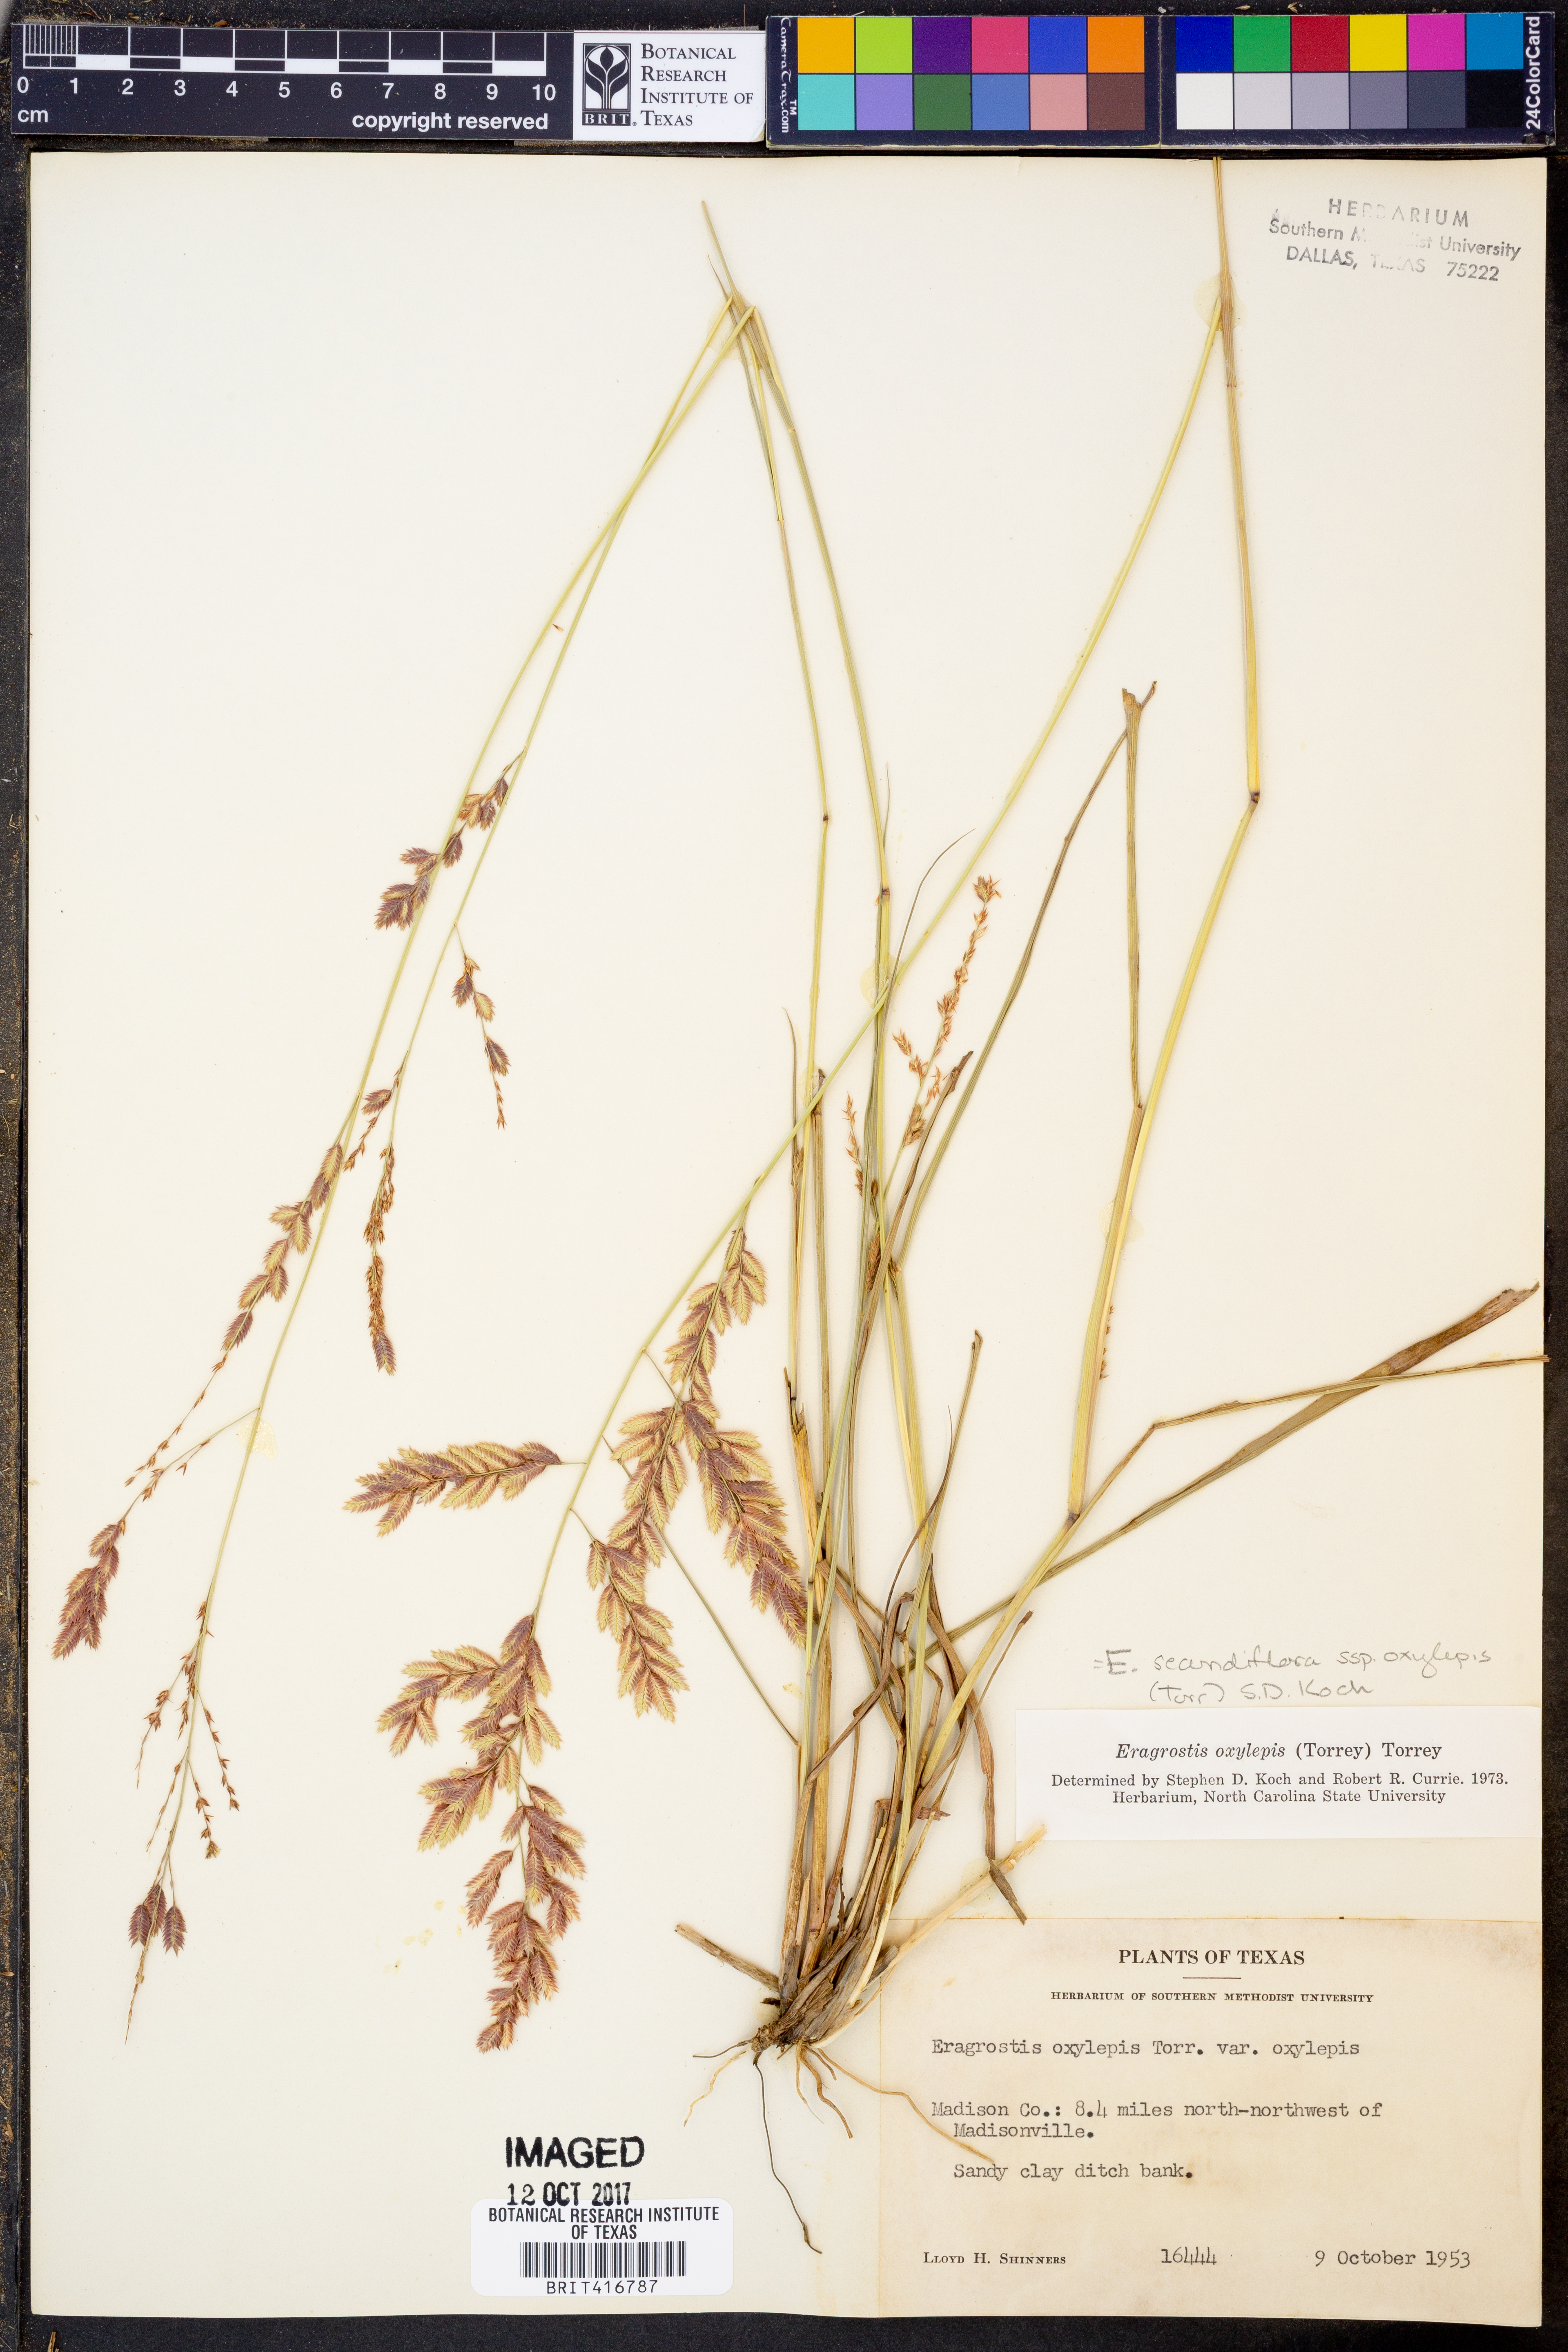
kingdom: Plantae
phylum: Tracheophyta
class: Liliopsida
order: Poales
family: Poaceae
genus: Eragrostis
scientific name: Eragrostis secundiflora
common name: Red love grass
